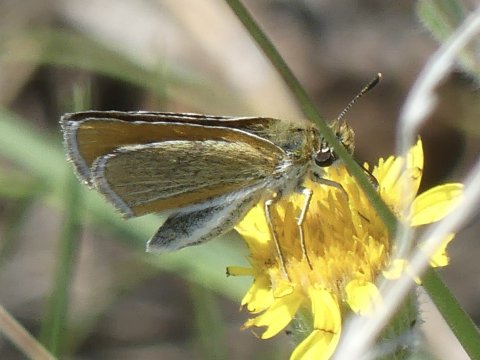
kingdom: Animalia
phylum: Arthropoda
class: Insecta
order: Lepidoptera
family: Hesperiidae
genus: Oarisma
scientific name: Oarisma garita
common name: Garita Skipperling
